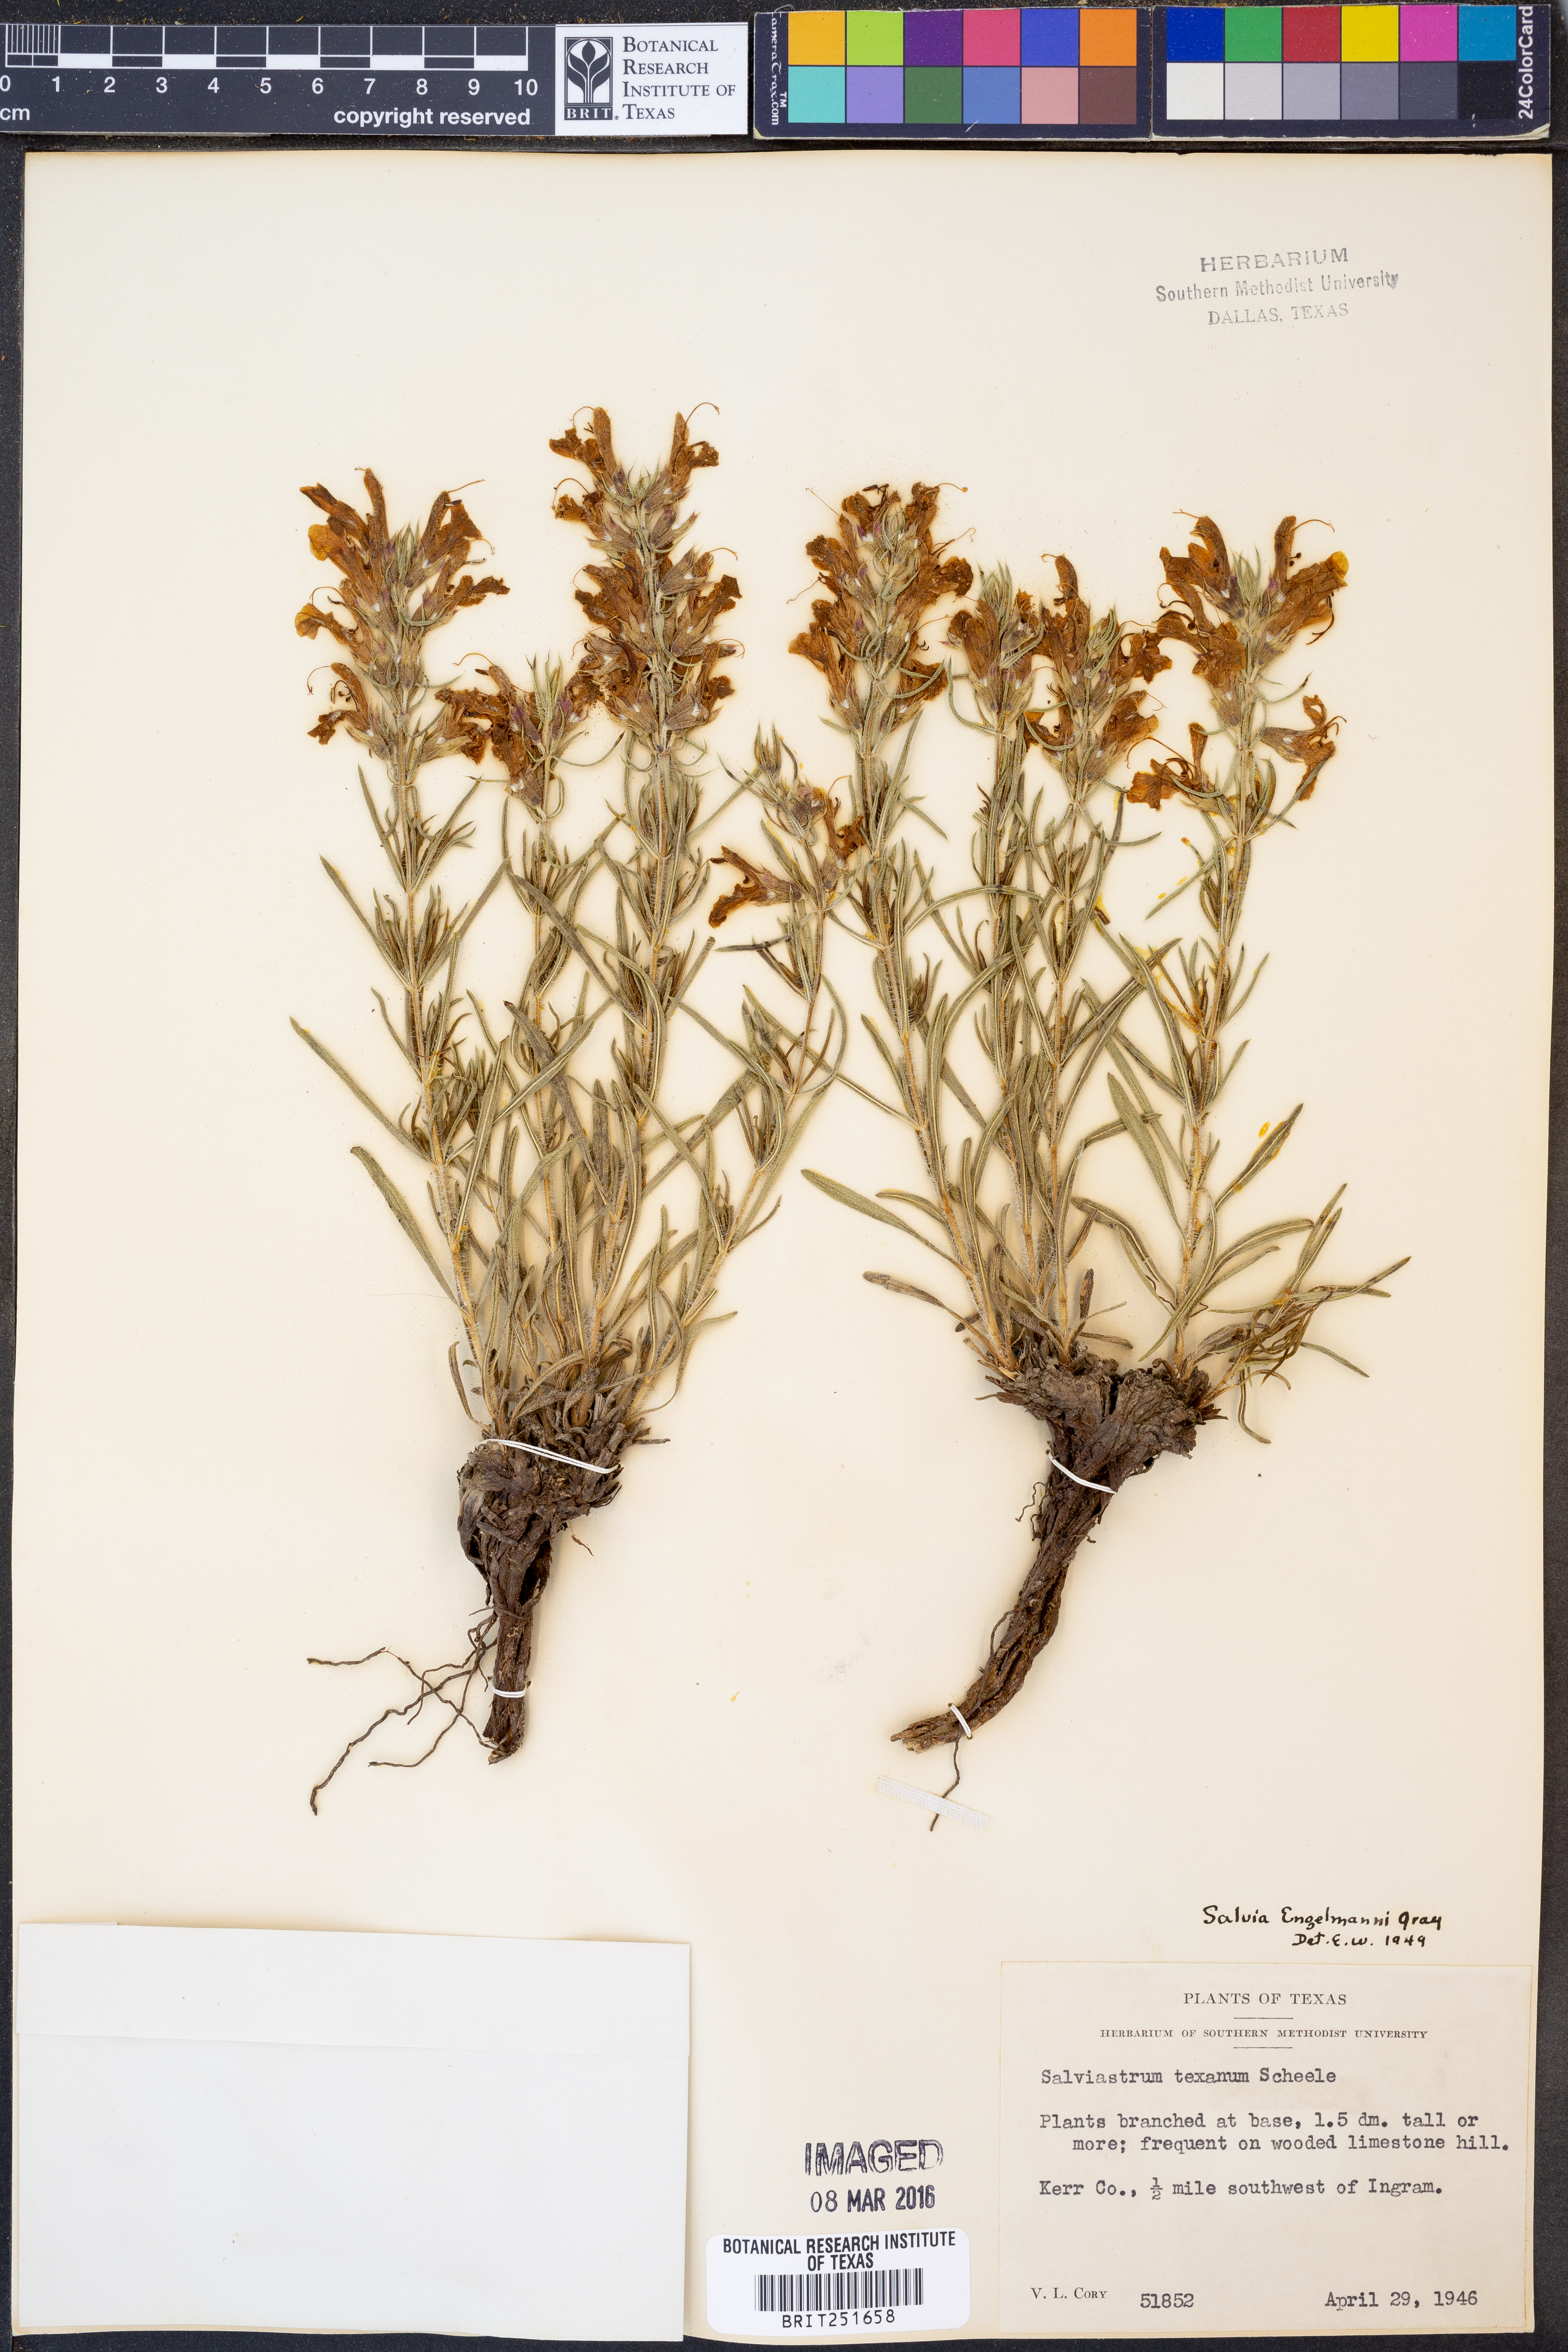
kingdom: Plantae
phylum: Tracheophyta
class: Magnoliopsida
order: Lamiales
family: Lamiaceae
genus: Salvia
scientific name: Salvia engelmannii
